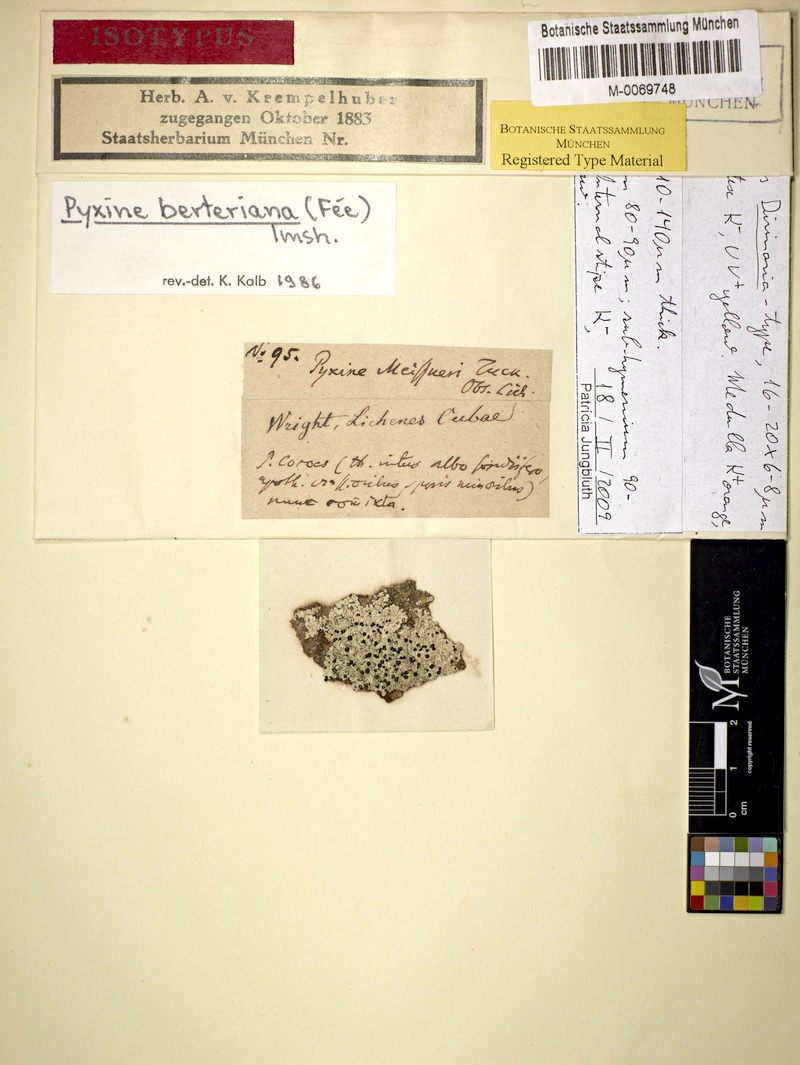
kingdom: Fungi
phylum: Ascomycota
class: Lecanoromycetes
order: Caliciales
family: Caliciaceae
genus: Pyxine
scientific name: Pyxine berteroana
